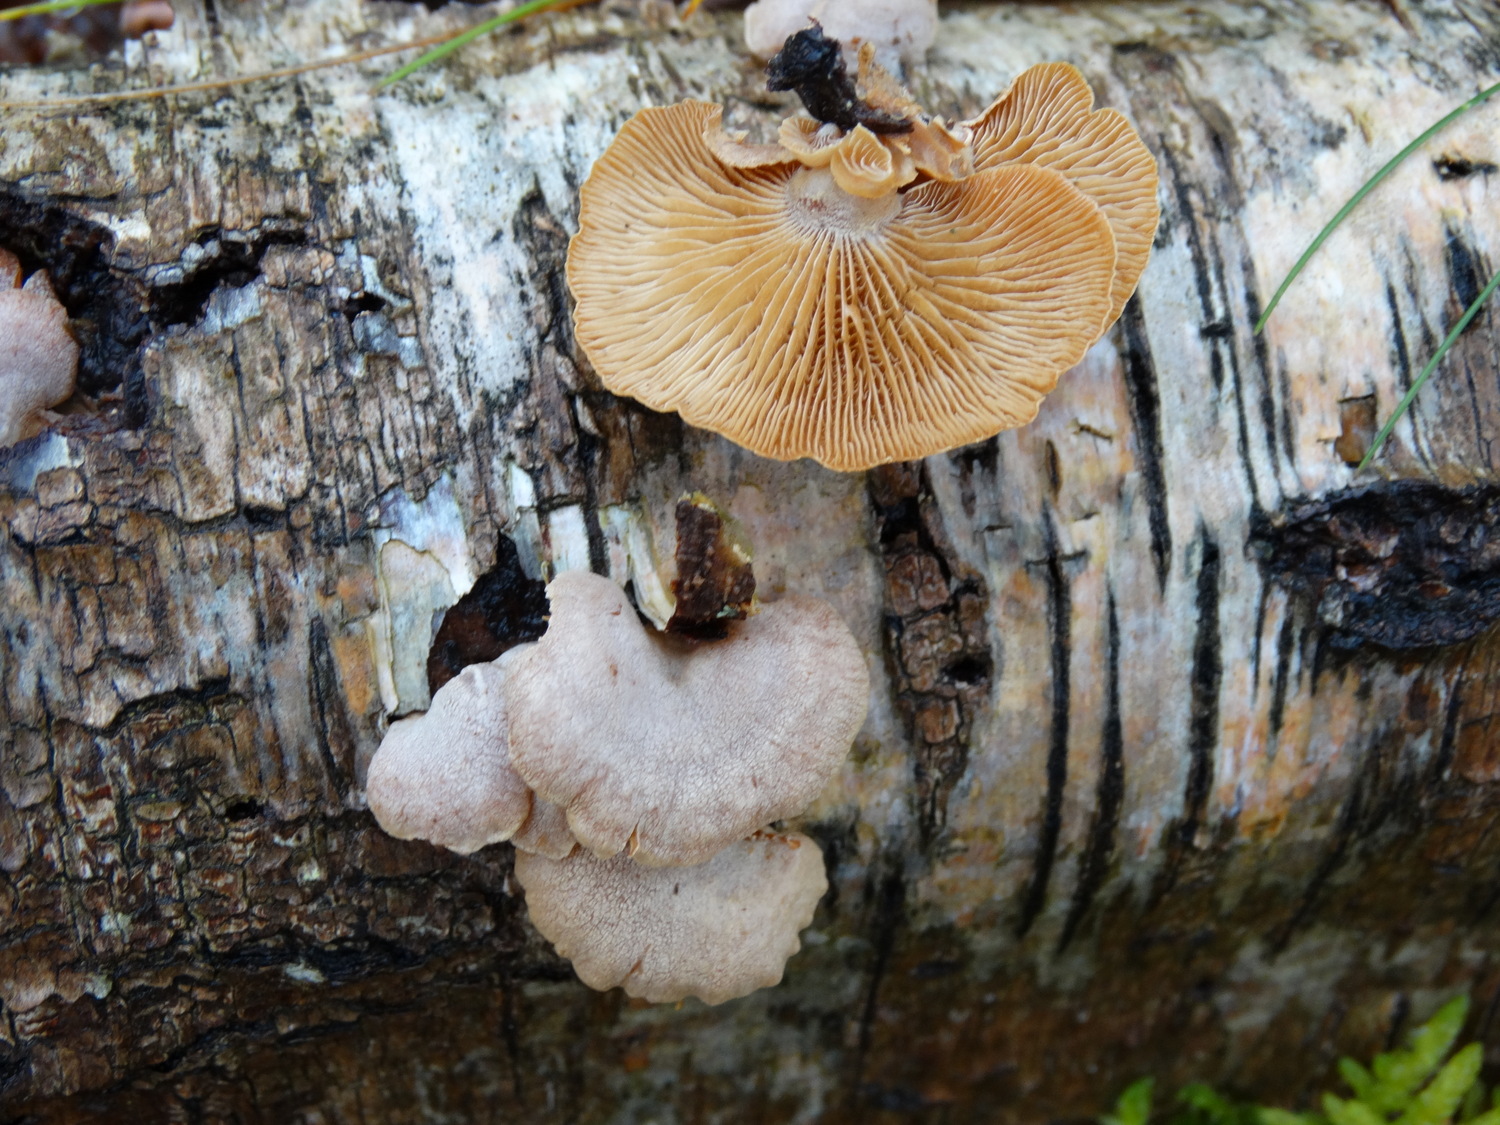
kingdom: Fungi
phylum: Basidiomycota
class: Agaricomycetes
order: Agaricales
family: Mycenaceae
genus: Panellus
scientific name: Panellus stipticus
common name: kliddet epaulethat
